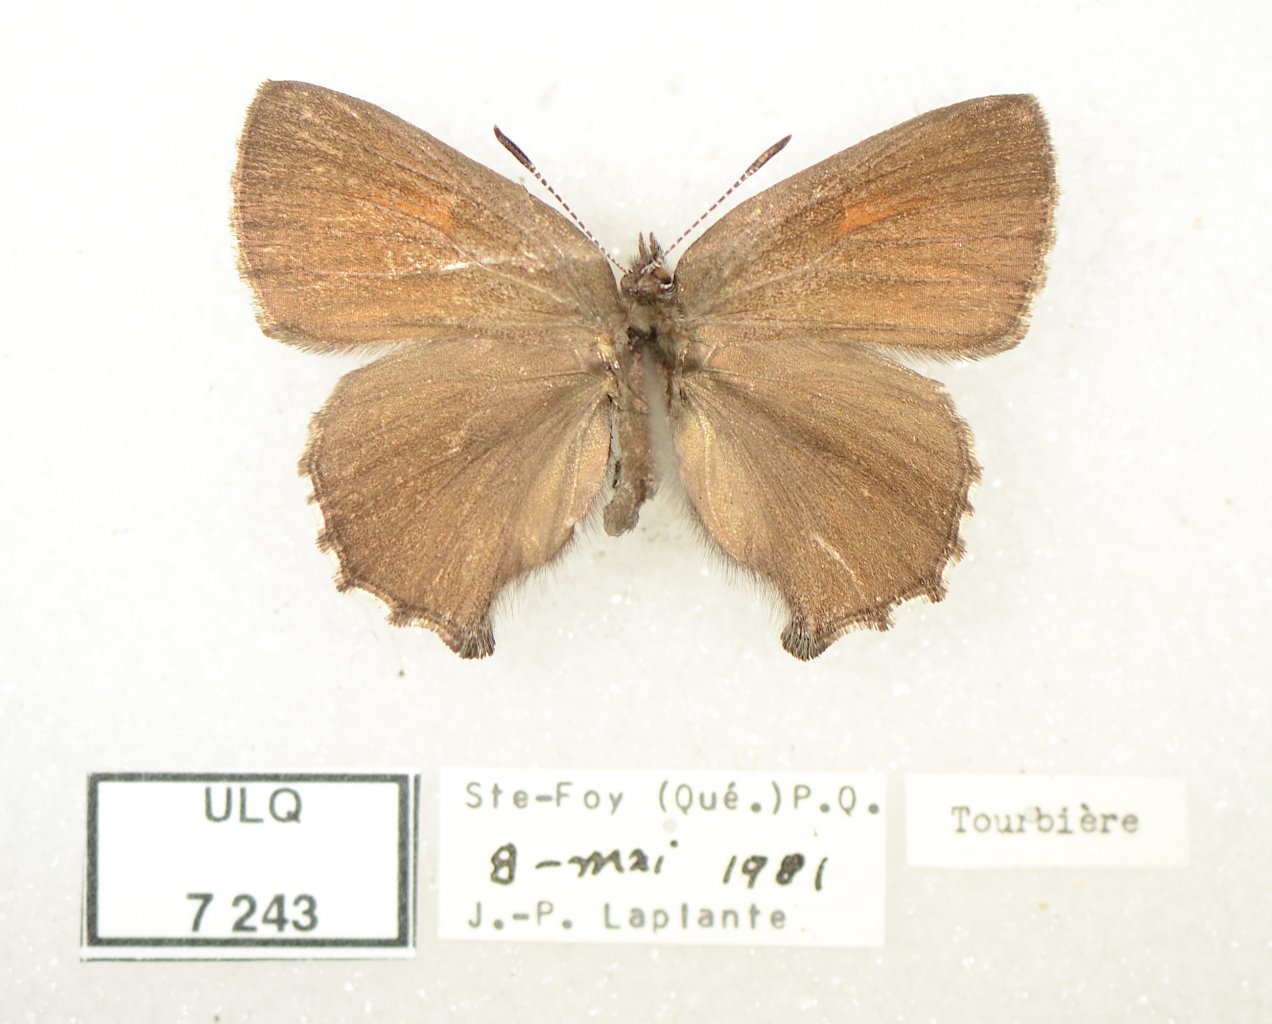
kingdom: Animalia
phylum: Arthropoda
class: Insecta
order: Lepidoptera
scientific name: Lepidoptera
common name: Butterflies
